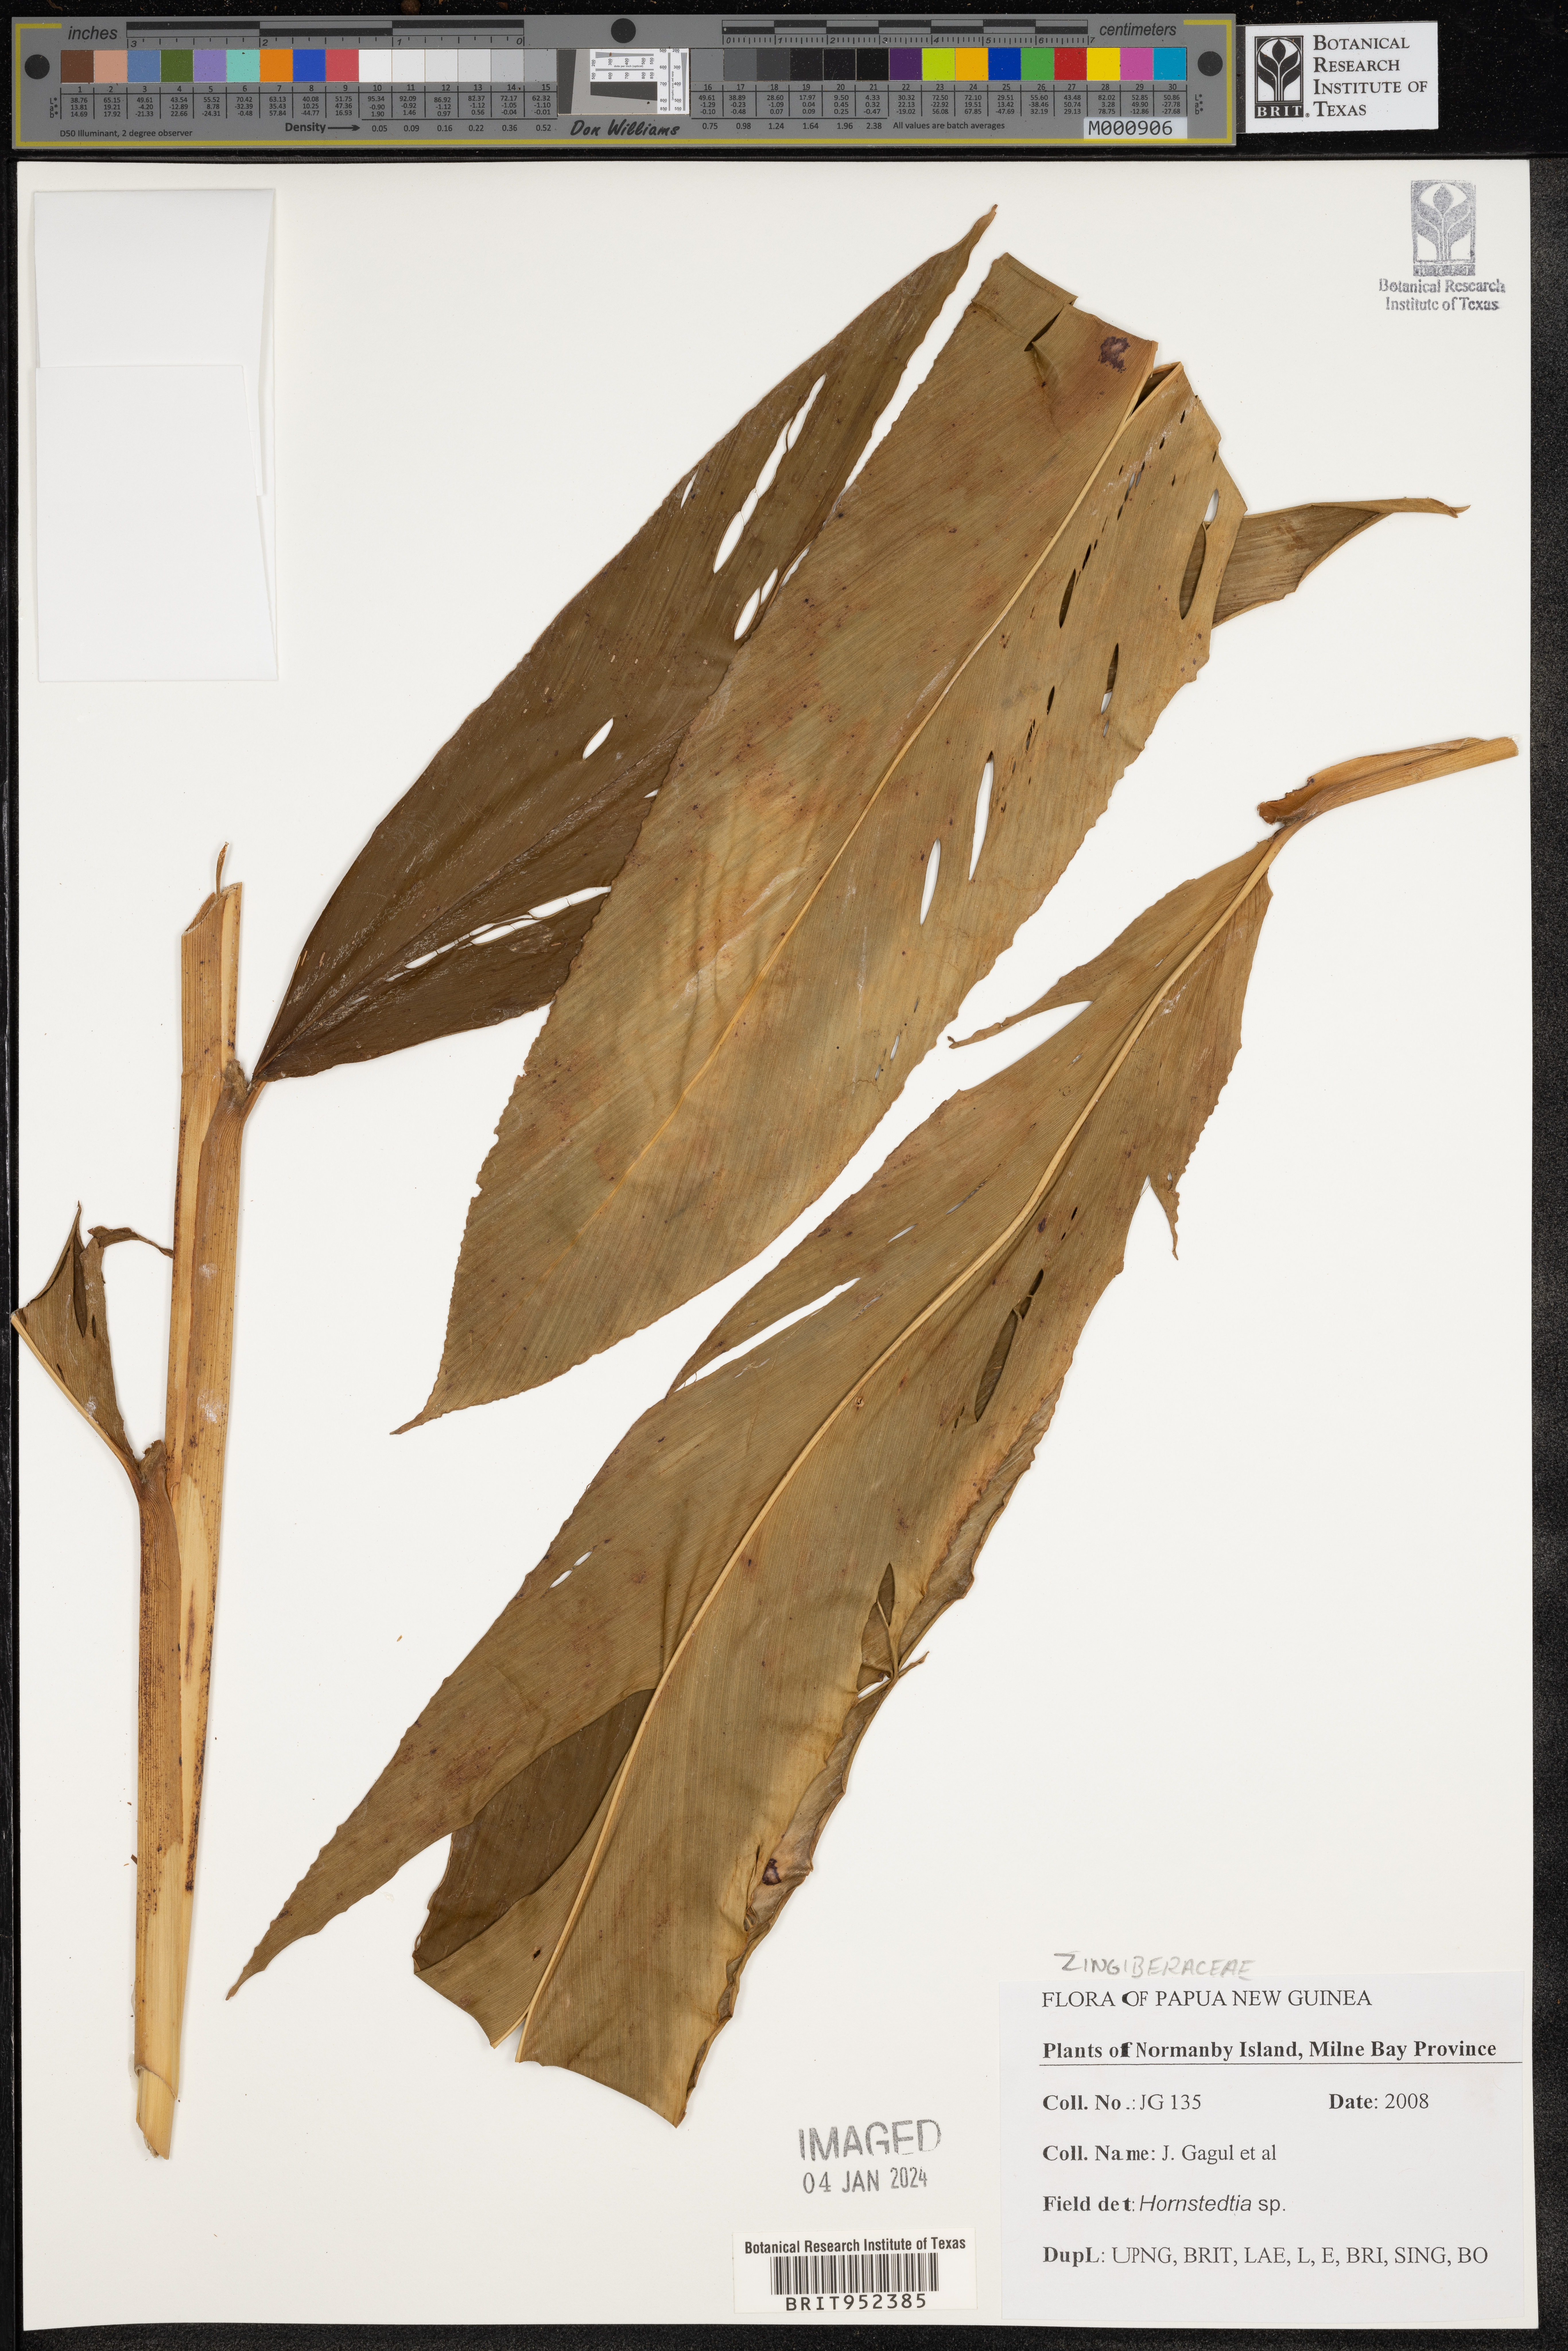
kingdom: Plantae
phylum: Tracheophyta
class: Liliopsida
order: Zingiberales
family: Zingiberaceae
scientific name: Zingiberaceae
